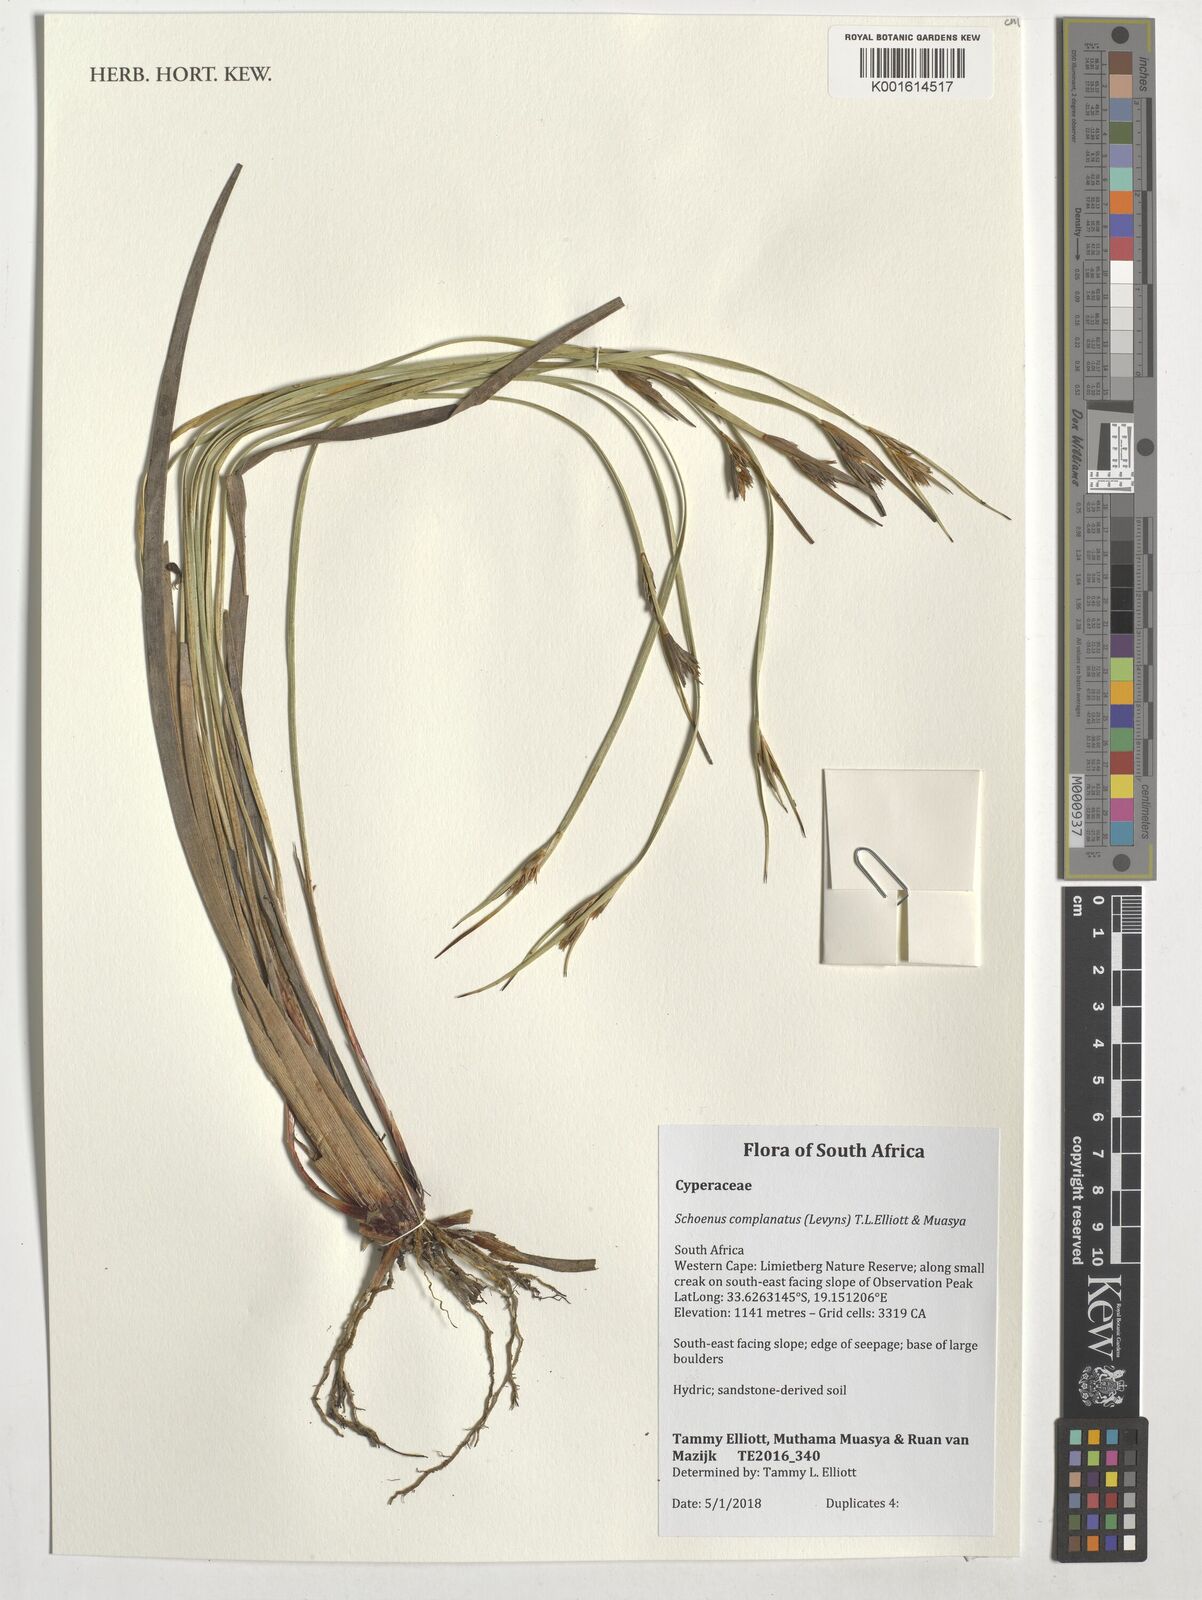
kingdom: Plantae
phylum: Tracheophyta
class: Liliopsida
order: Poales
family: Cyperaceae
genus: Schoenus
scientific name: Schoenus complanatus
